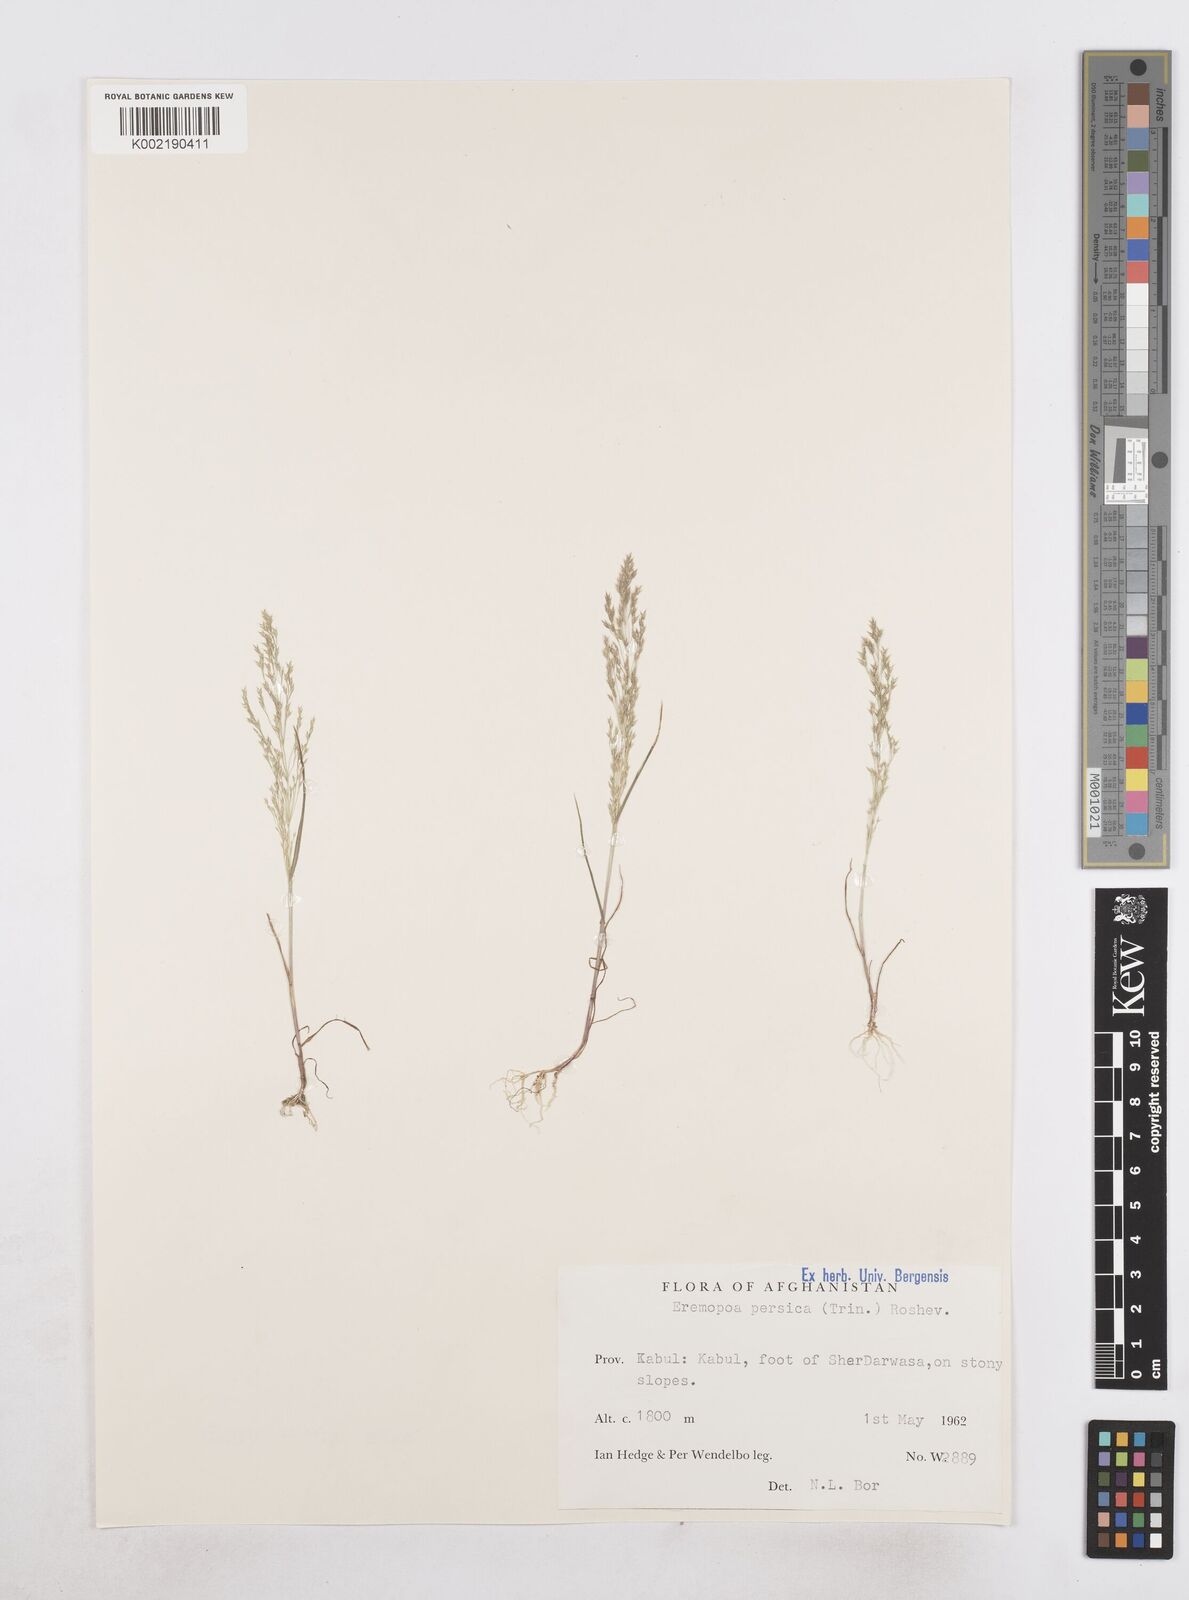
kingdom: Plantae
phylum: Tracheophyta
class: Liliopsida
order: Poales
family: Poaceae
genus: Poa
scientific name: Poa diaphora
